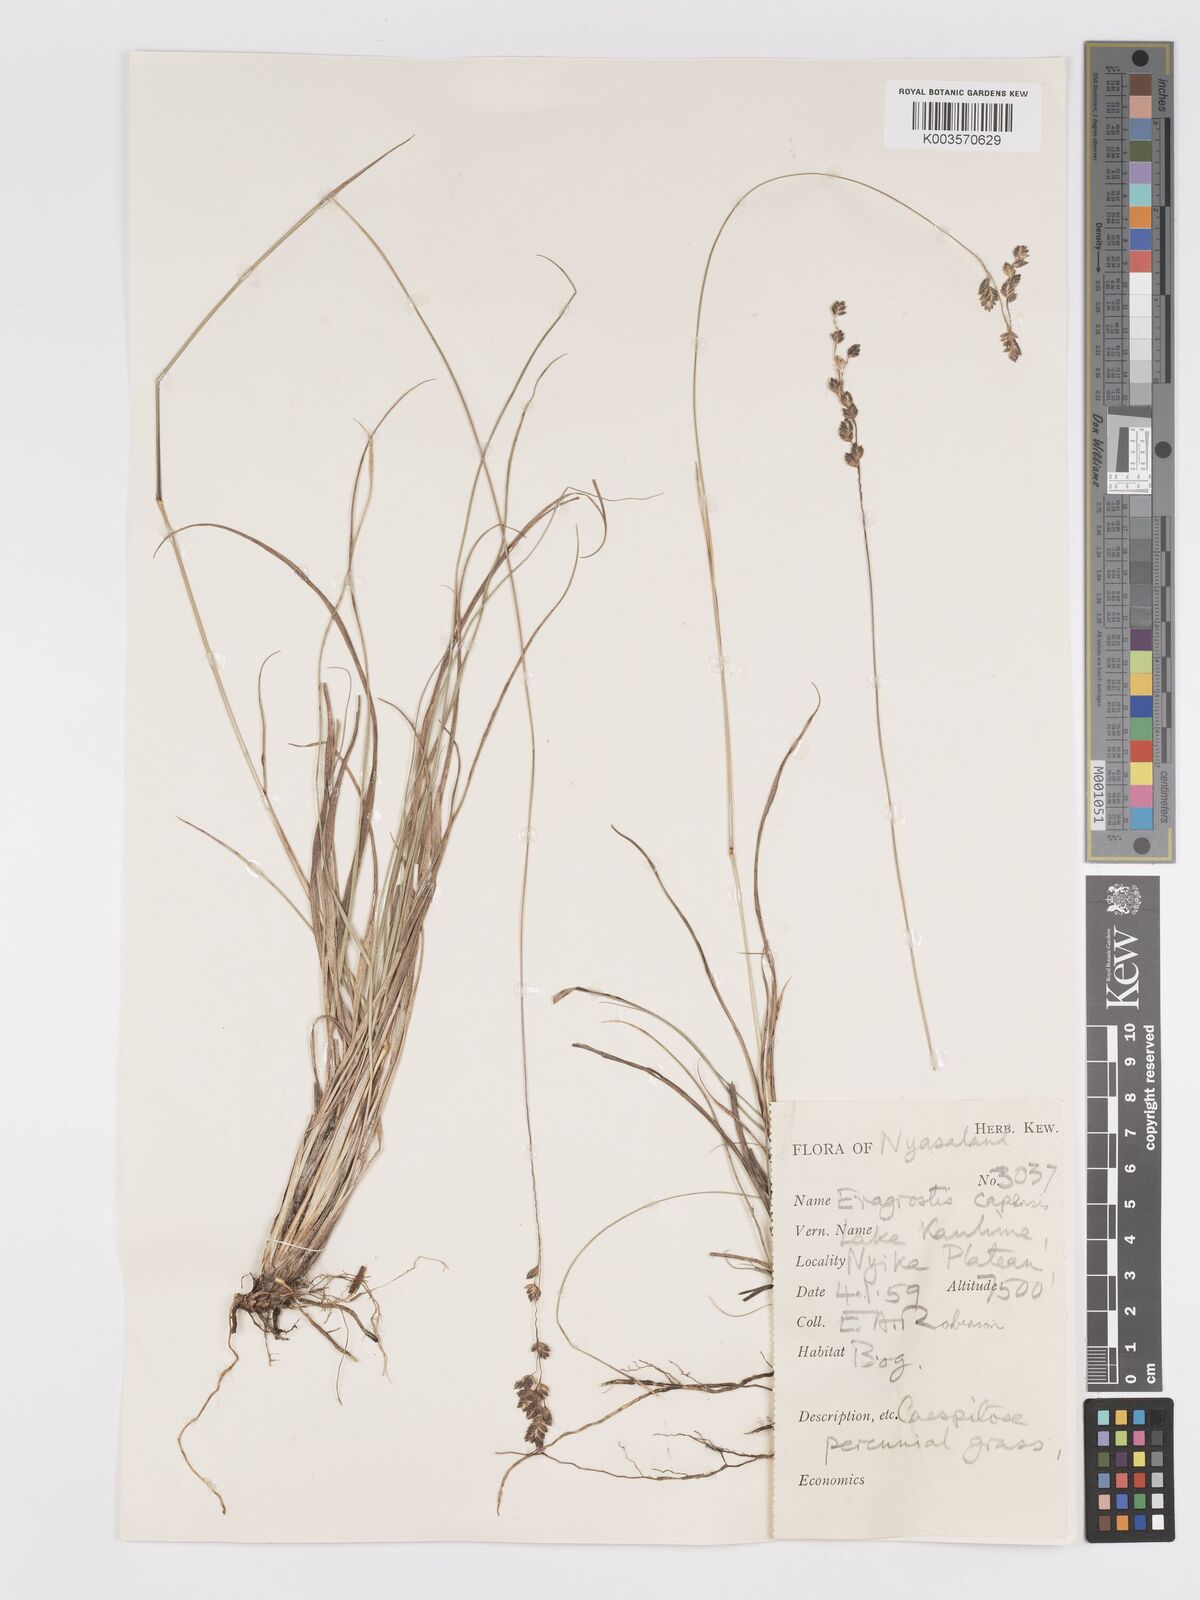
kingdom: Plantae
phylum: Tracheophyta
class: Liliopsida
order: Poales
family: Poaceae
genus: Eragrostis
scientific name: Eragrostis capensis
